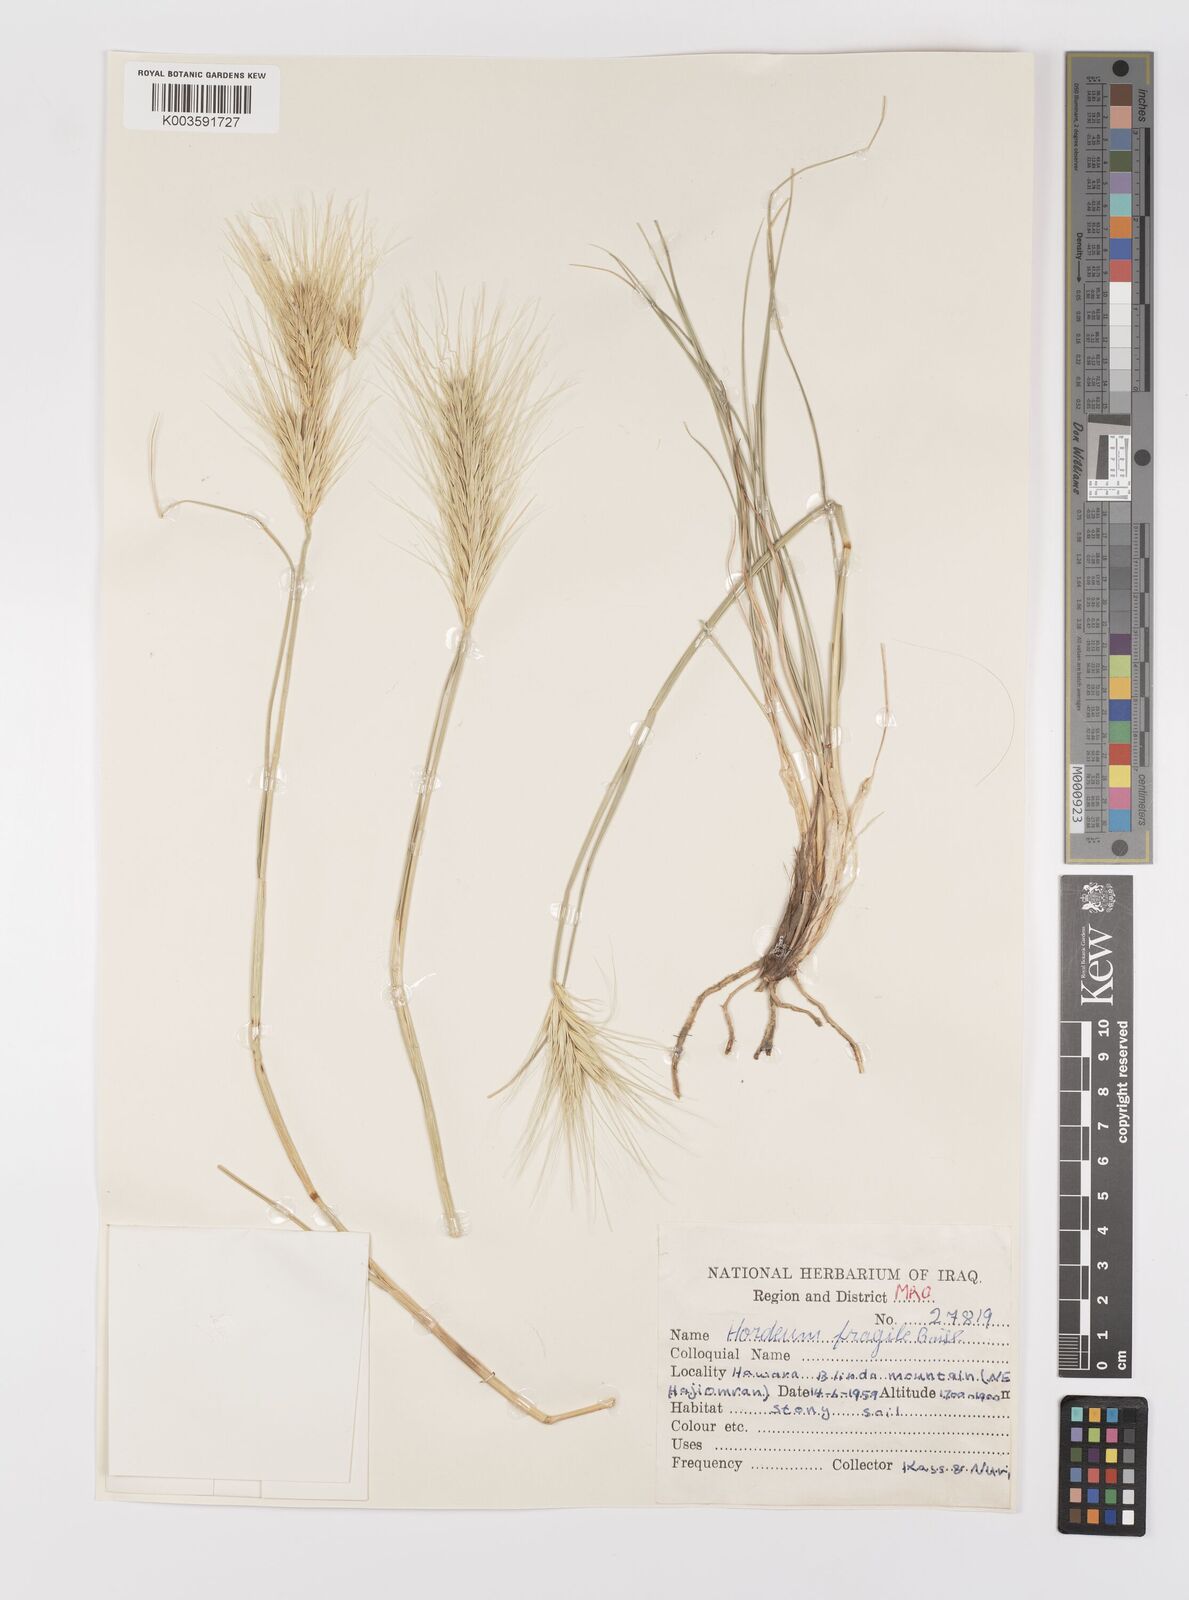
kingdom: Plantae
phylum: Tracheophyta
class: Liliopsida
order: Poales
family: Poaceae
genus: Psathyrostachys
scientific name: Psathyrostachys fragilis
